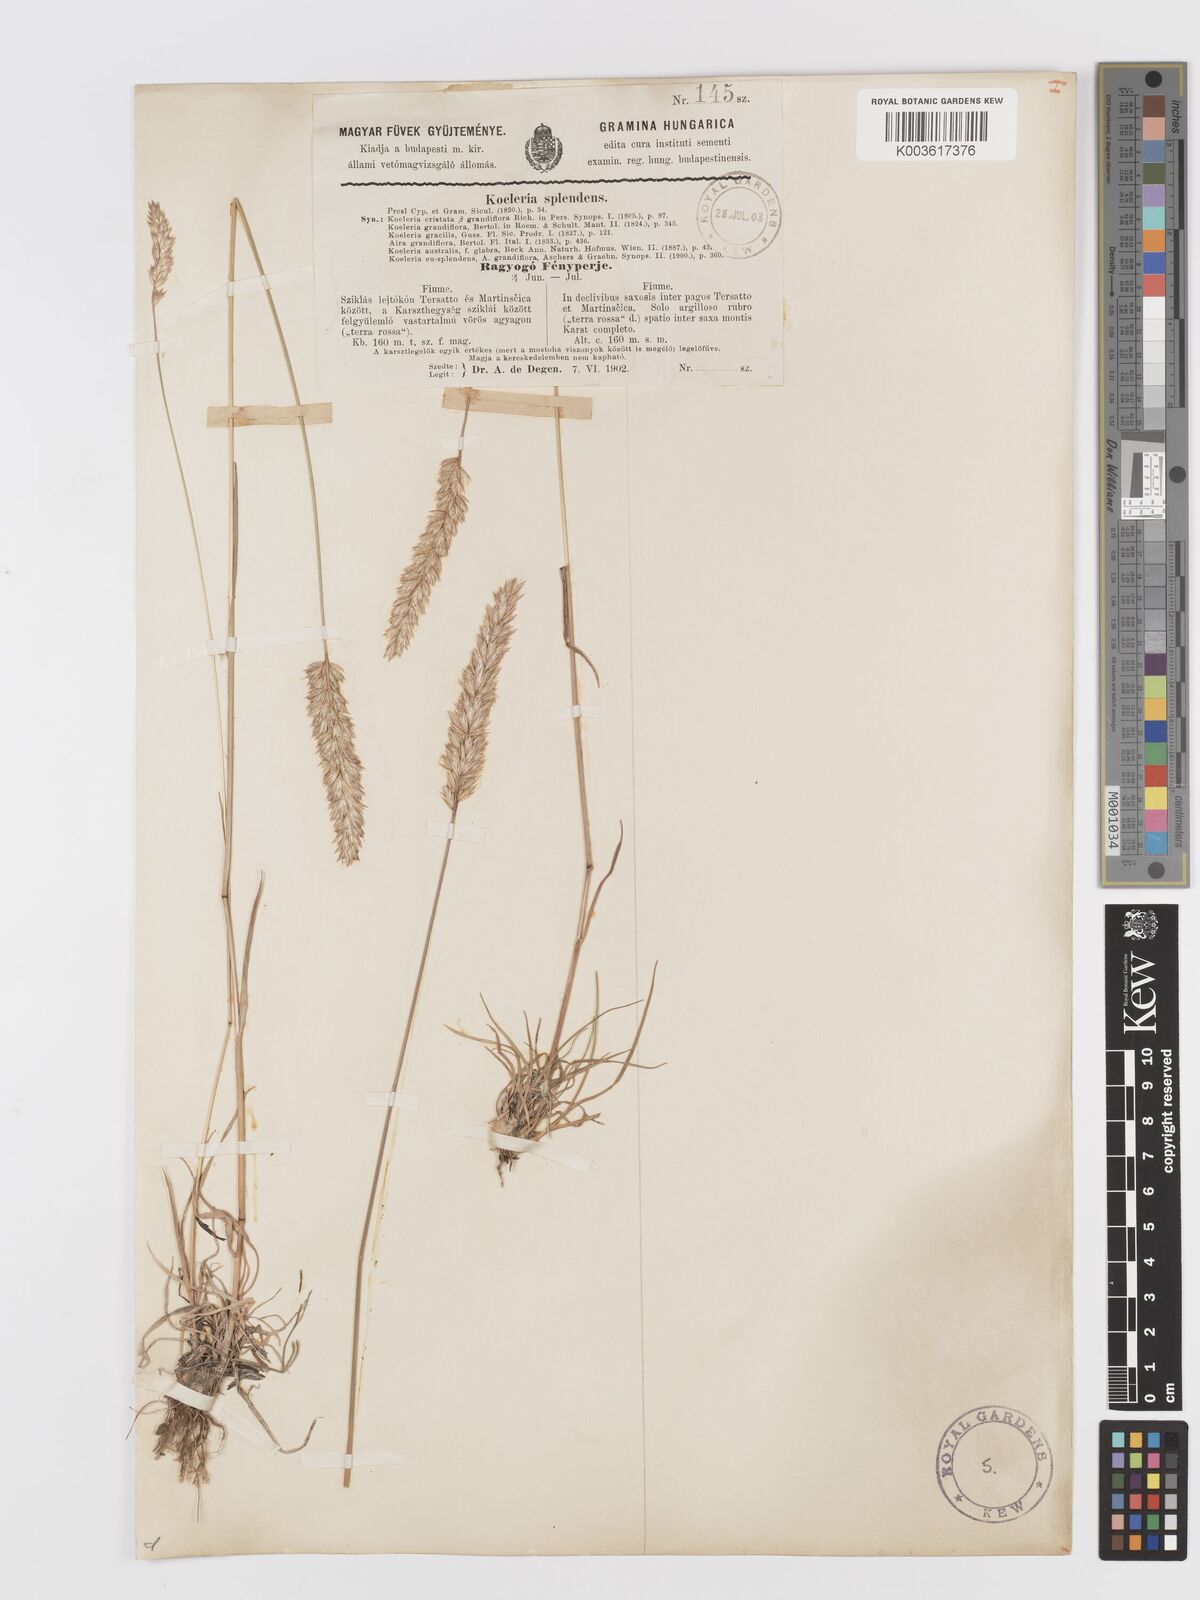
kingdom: Plantae
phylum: Tracheophyta
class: Liliopsida
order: Poales
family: Poaceae
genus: Koeleria
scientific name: Koeleria splendens
